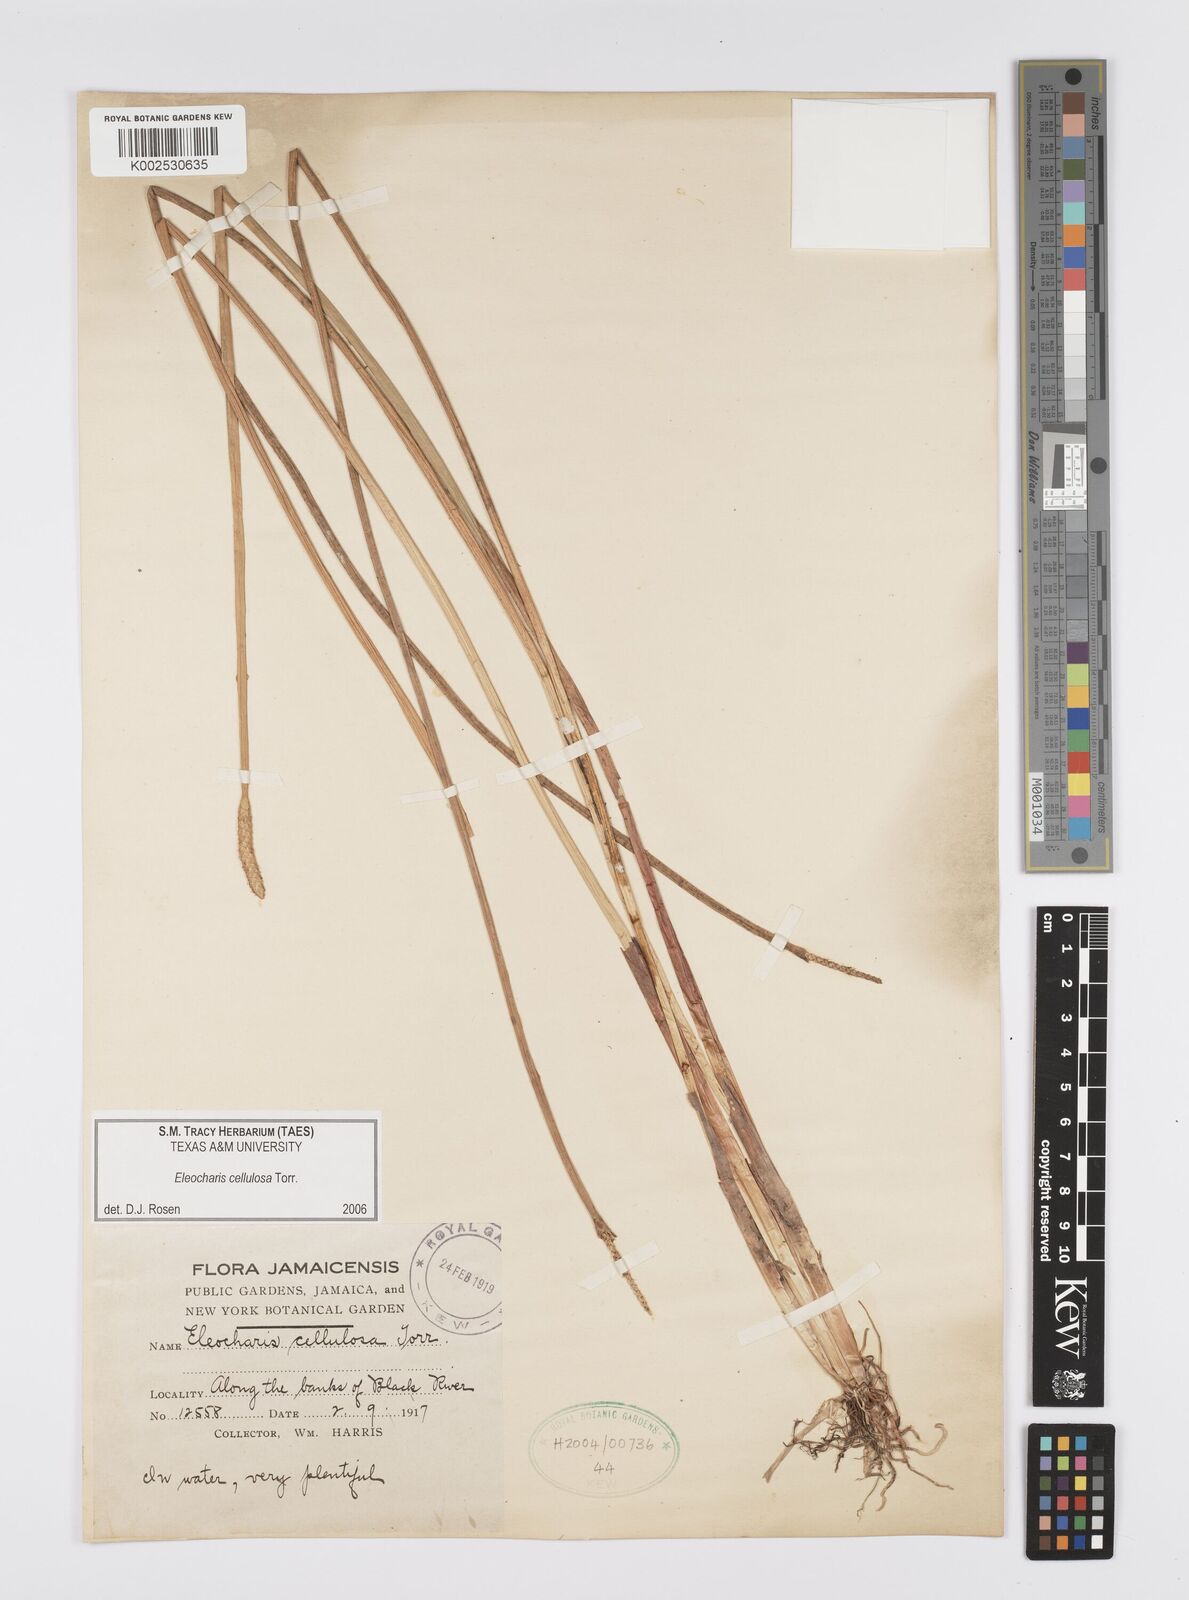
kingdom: Plantae
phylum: Tracheophyta
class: Liliopsida
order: Poales
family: Cyperaceae
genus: Eleocharis
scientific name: Eleocharis erhaiensis
